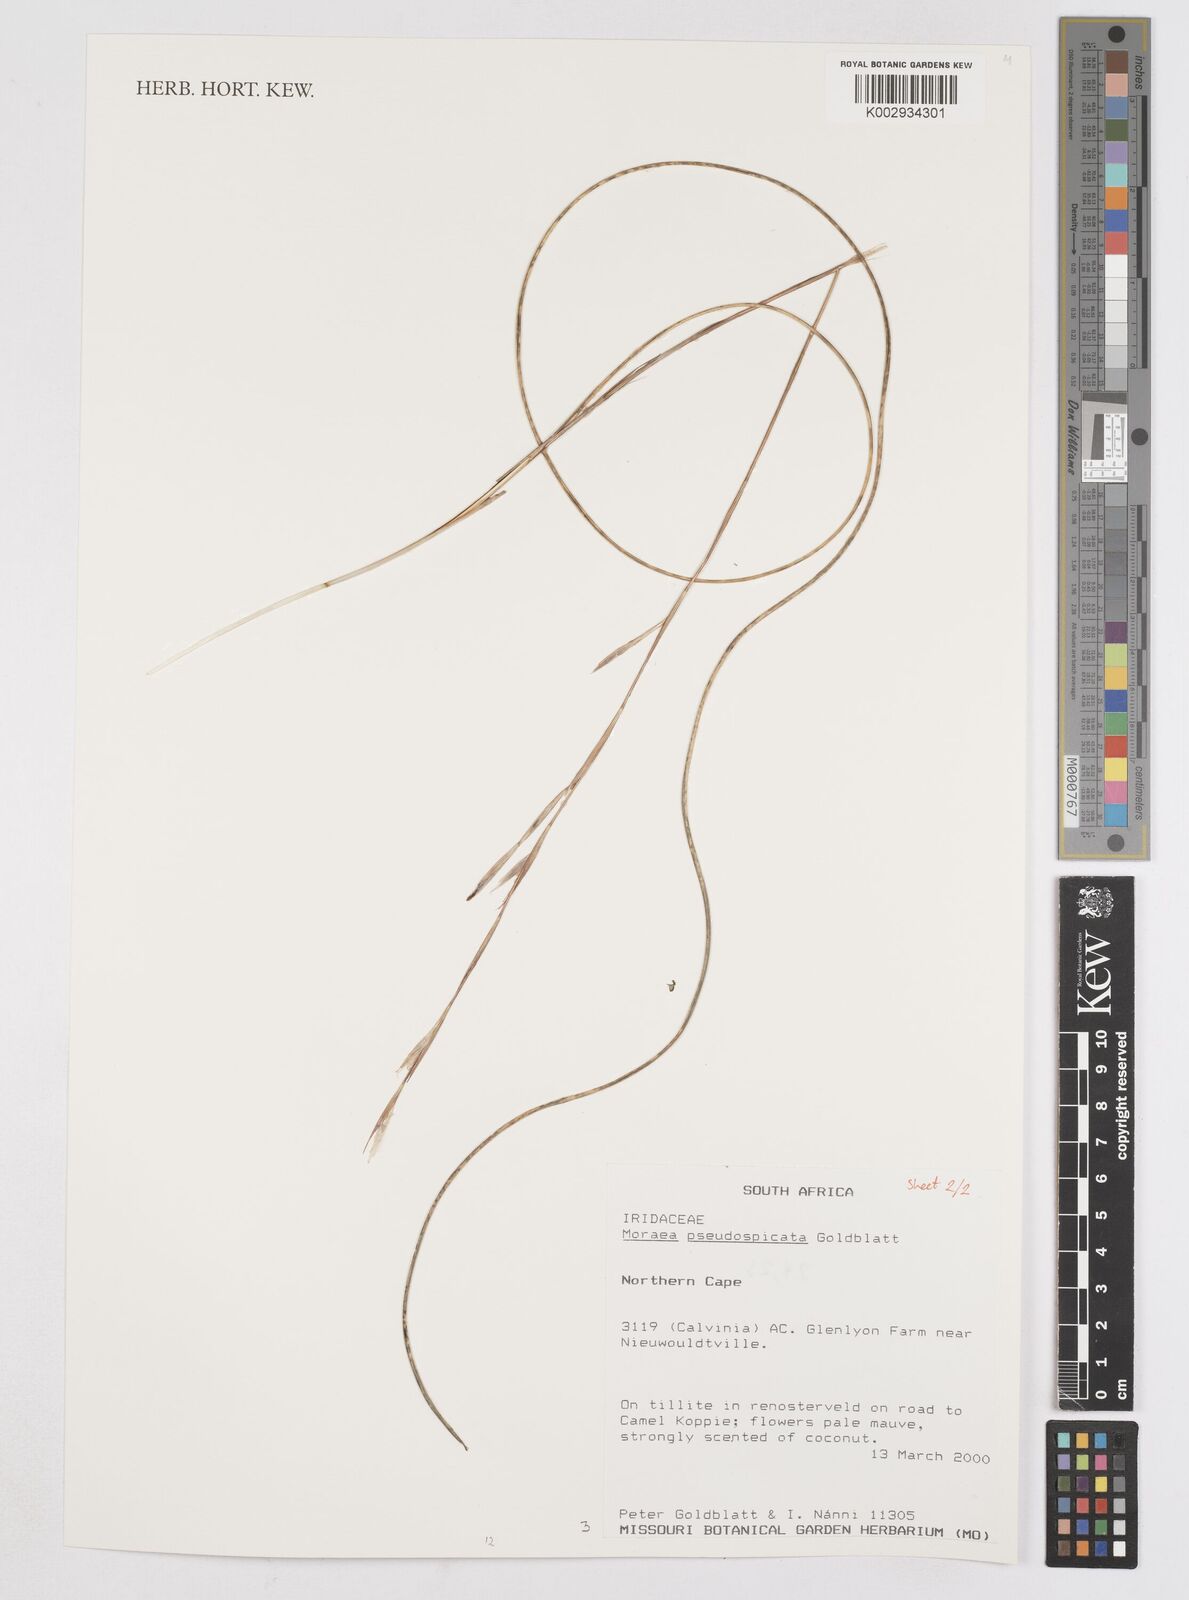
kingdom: Plantae
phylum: Tracheophyta
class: Liliopsida
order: Asparagales
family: Iridaceae
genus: Moraea
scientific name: Moraea pseudospicata
